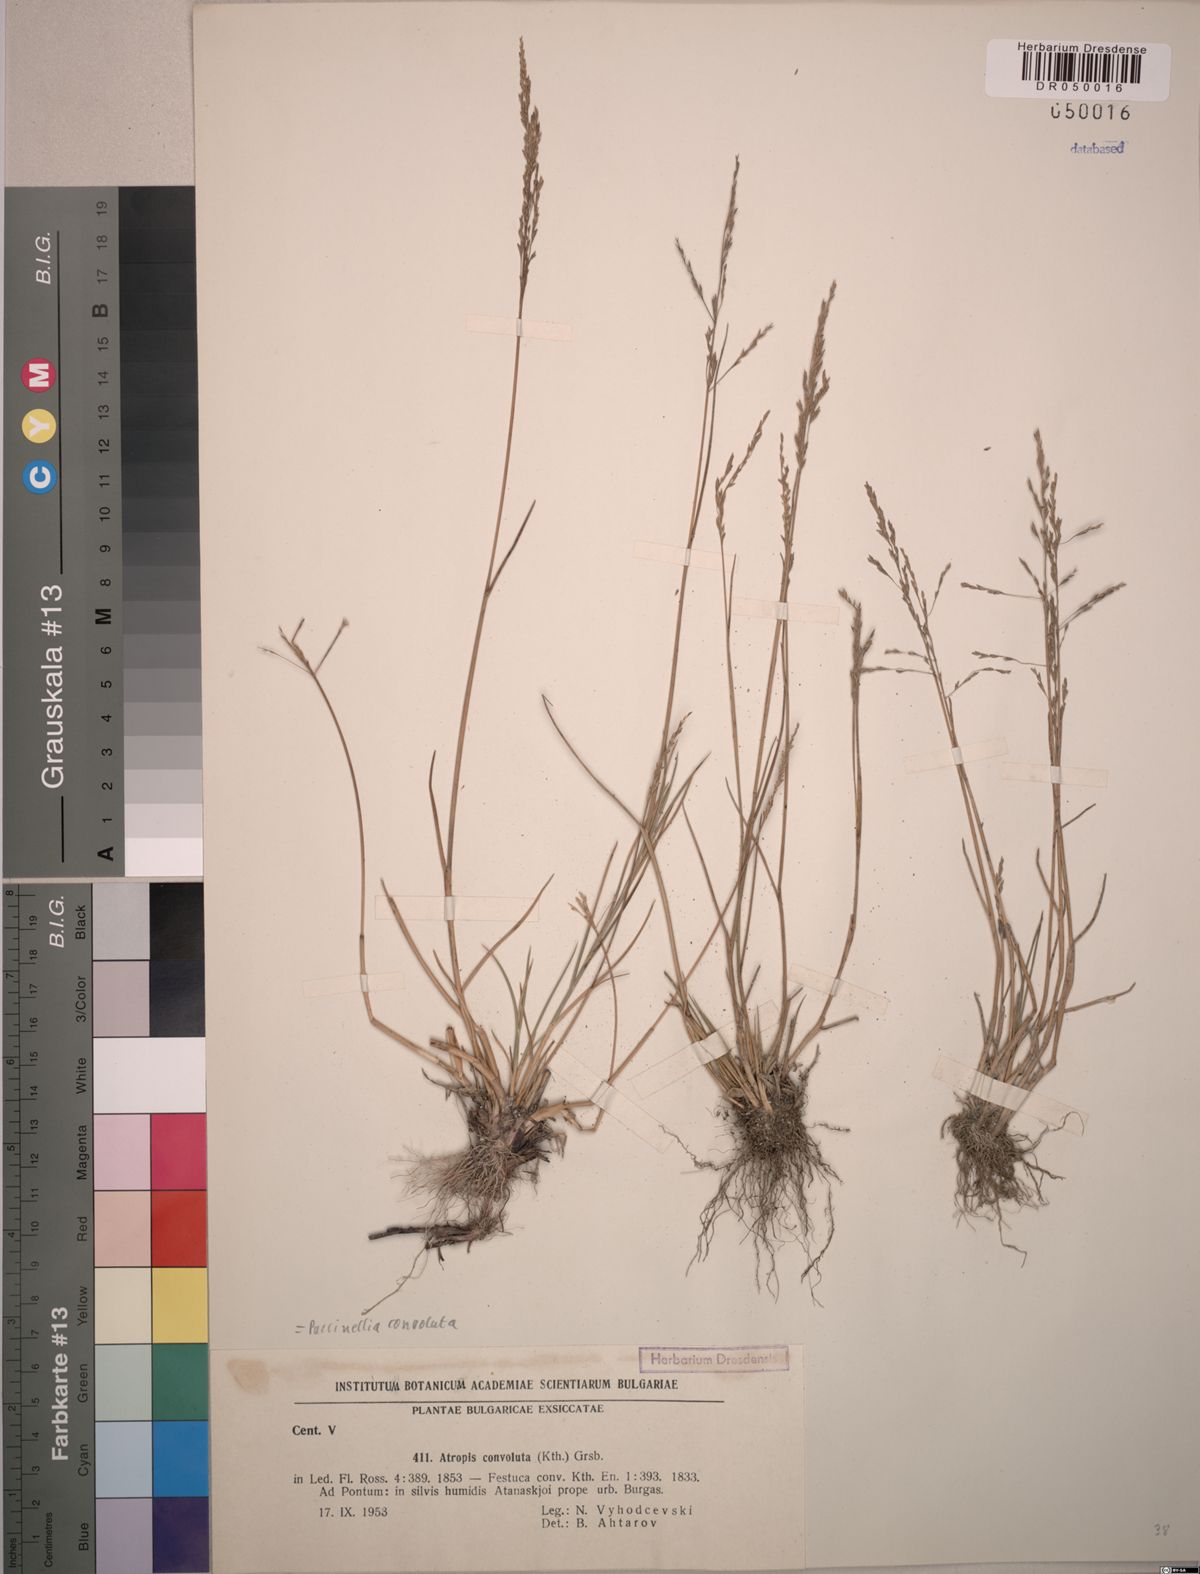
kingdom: Plantae
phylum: Tracheophyta
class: Liliopsida
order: Poales
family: Poaceae
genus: Puccinellia
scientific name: Puccinellia convoluta
